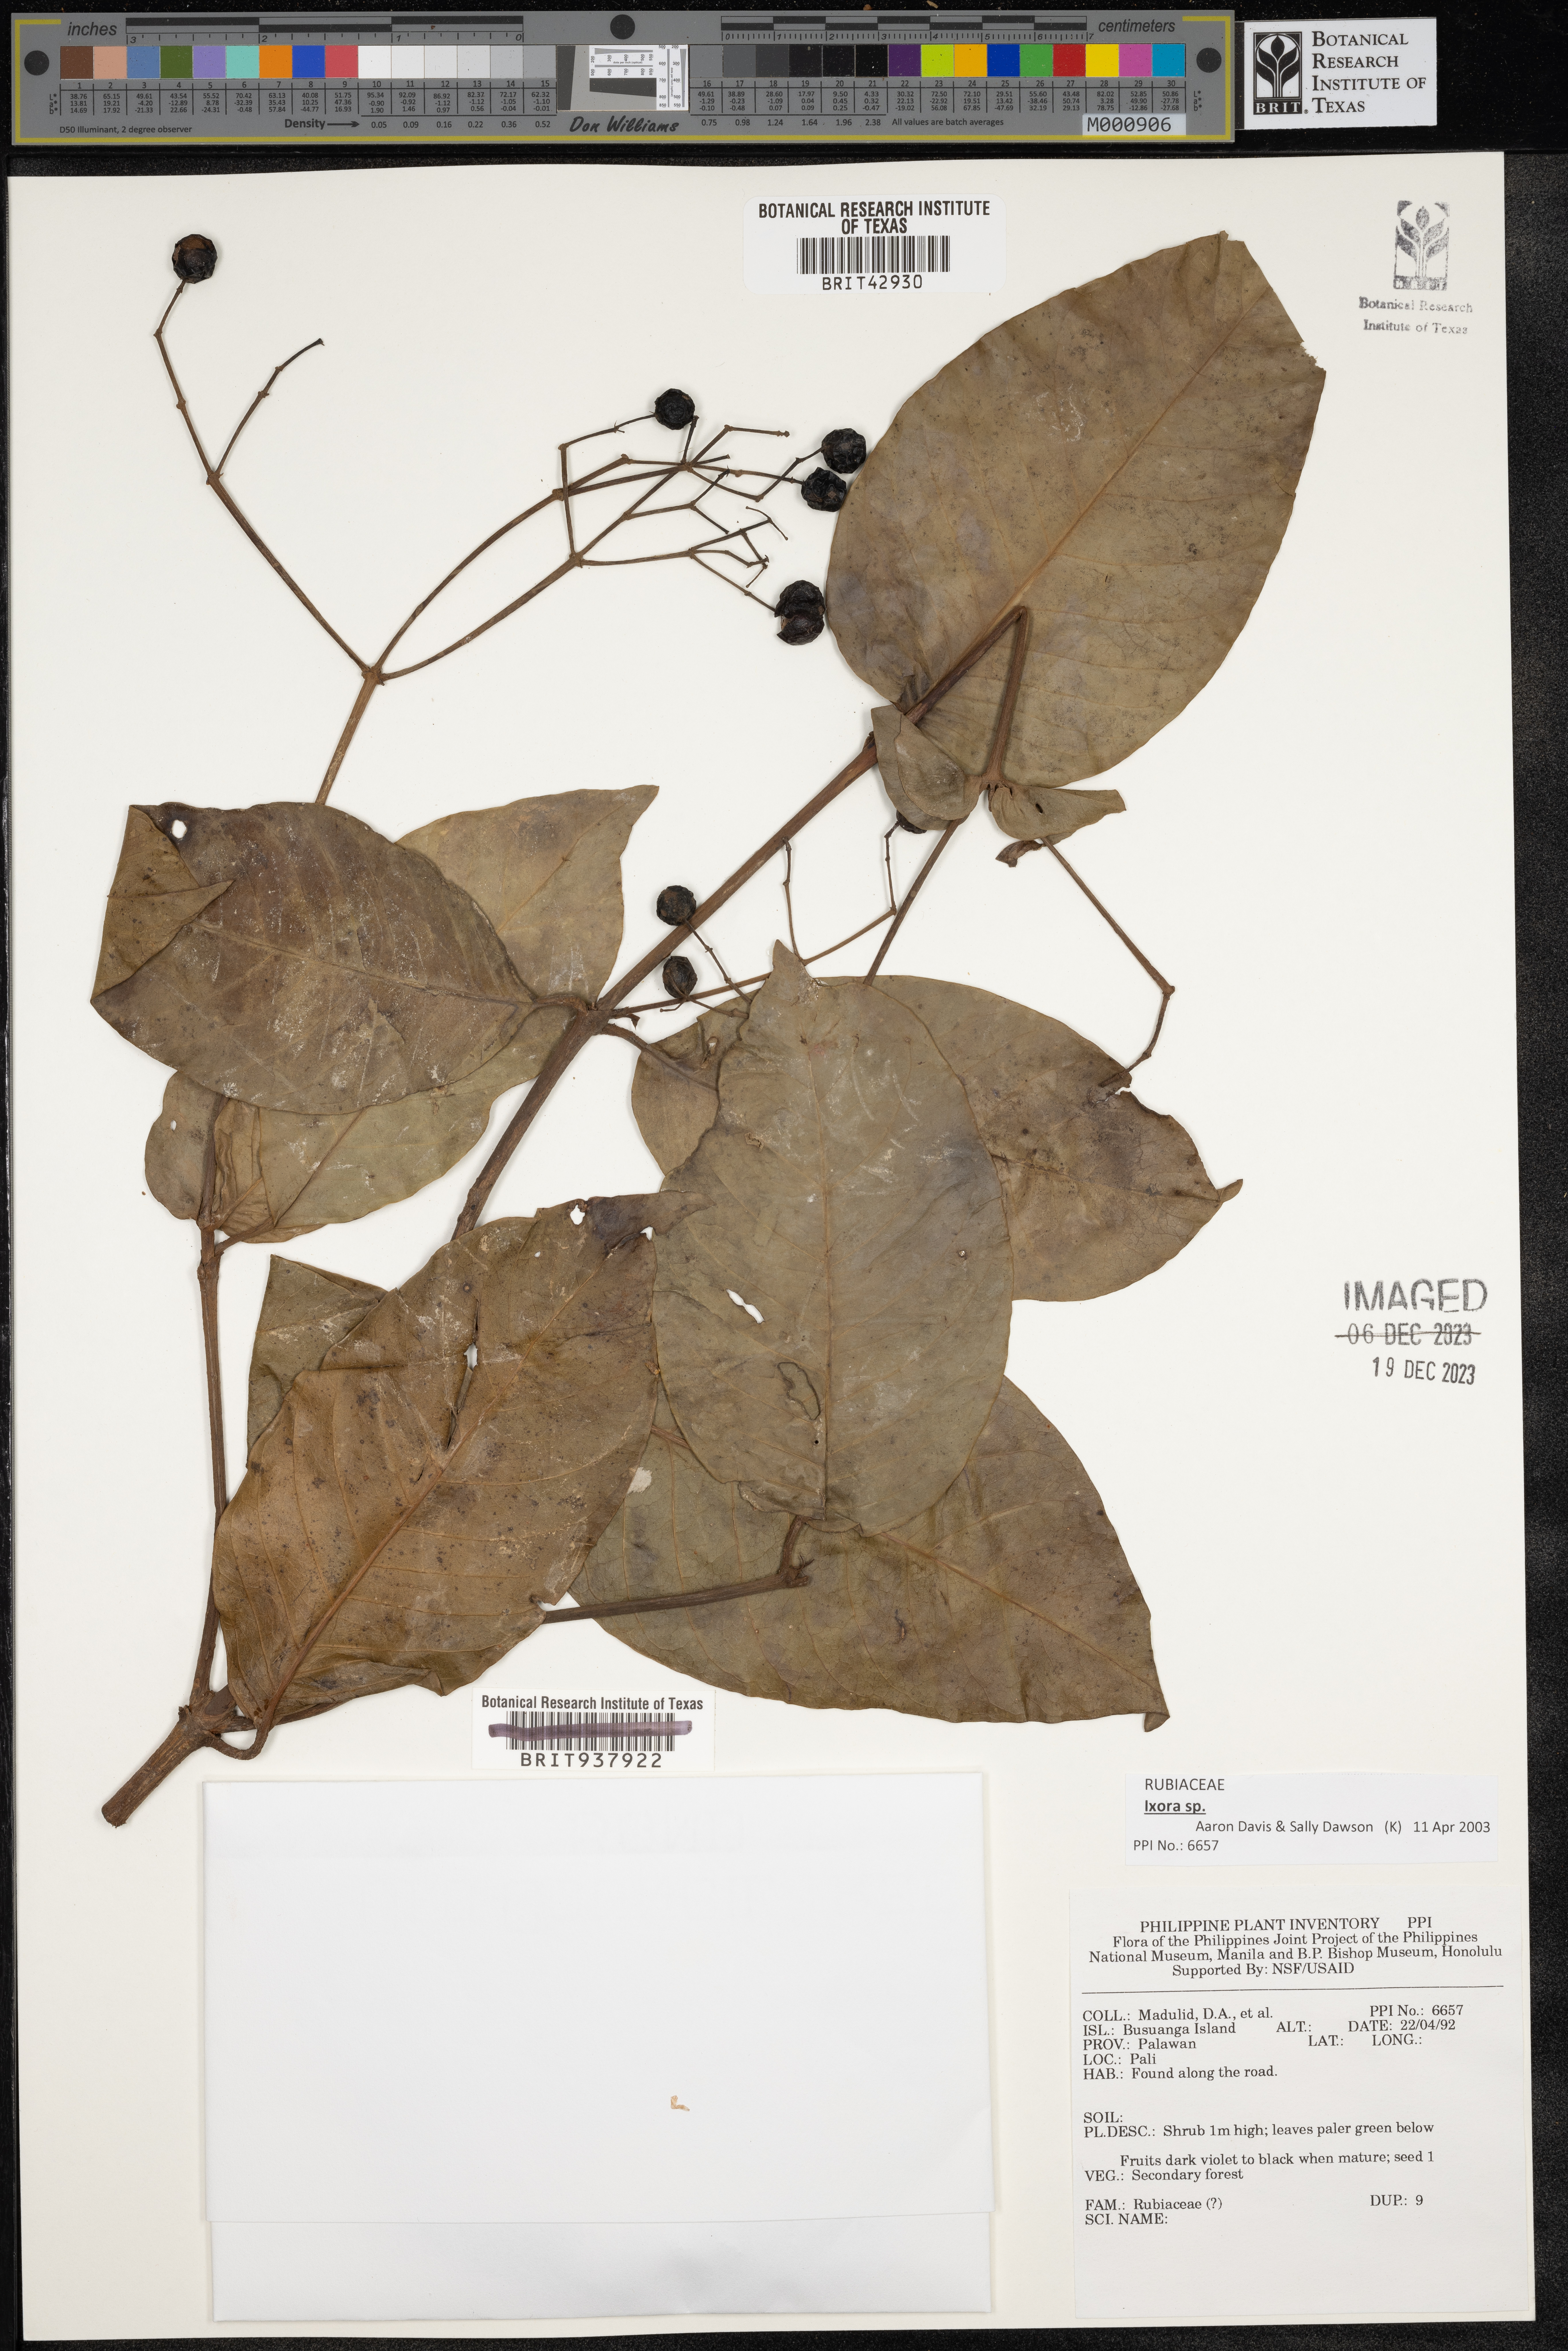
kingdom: Plantae
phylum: Tracheophyta
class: Magnoliopsida
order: Gentianales
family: Rubiaceae
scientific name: Rubiaceae
